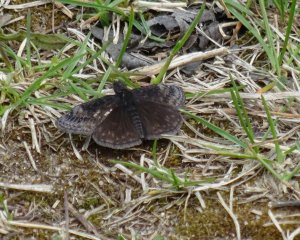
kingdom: Animalia
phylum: Arthropoda
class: Insecta
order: Lepidoptera
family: Hesperiidae
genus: Erynnis
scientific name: Erynnis
